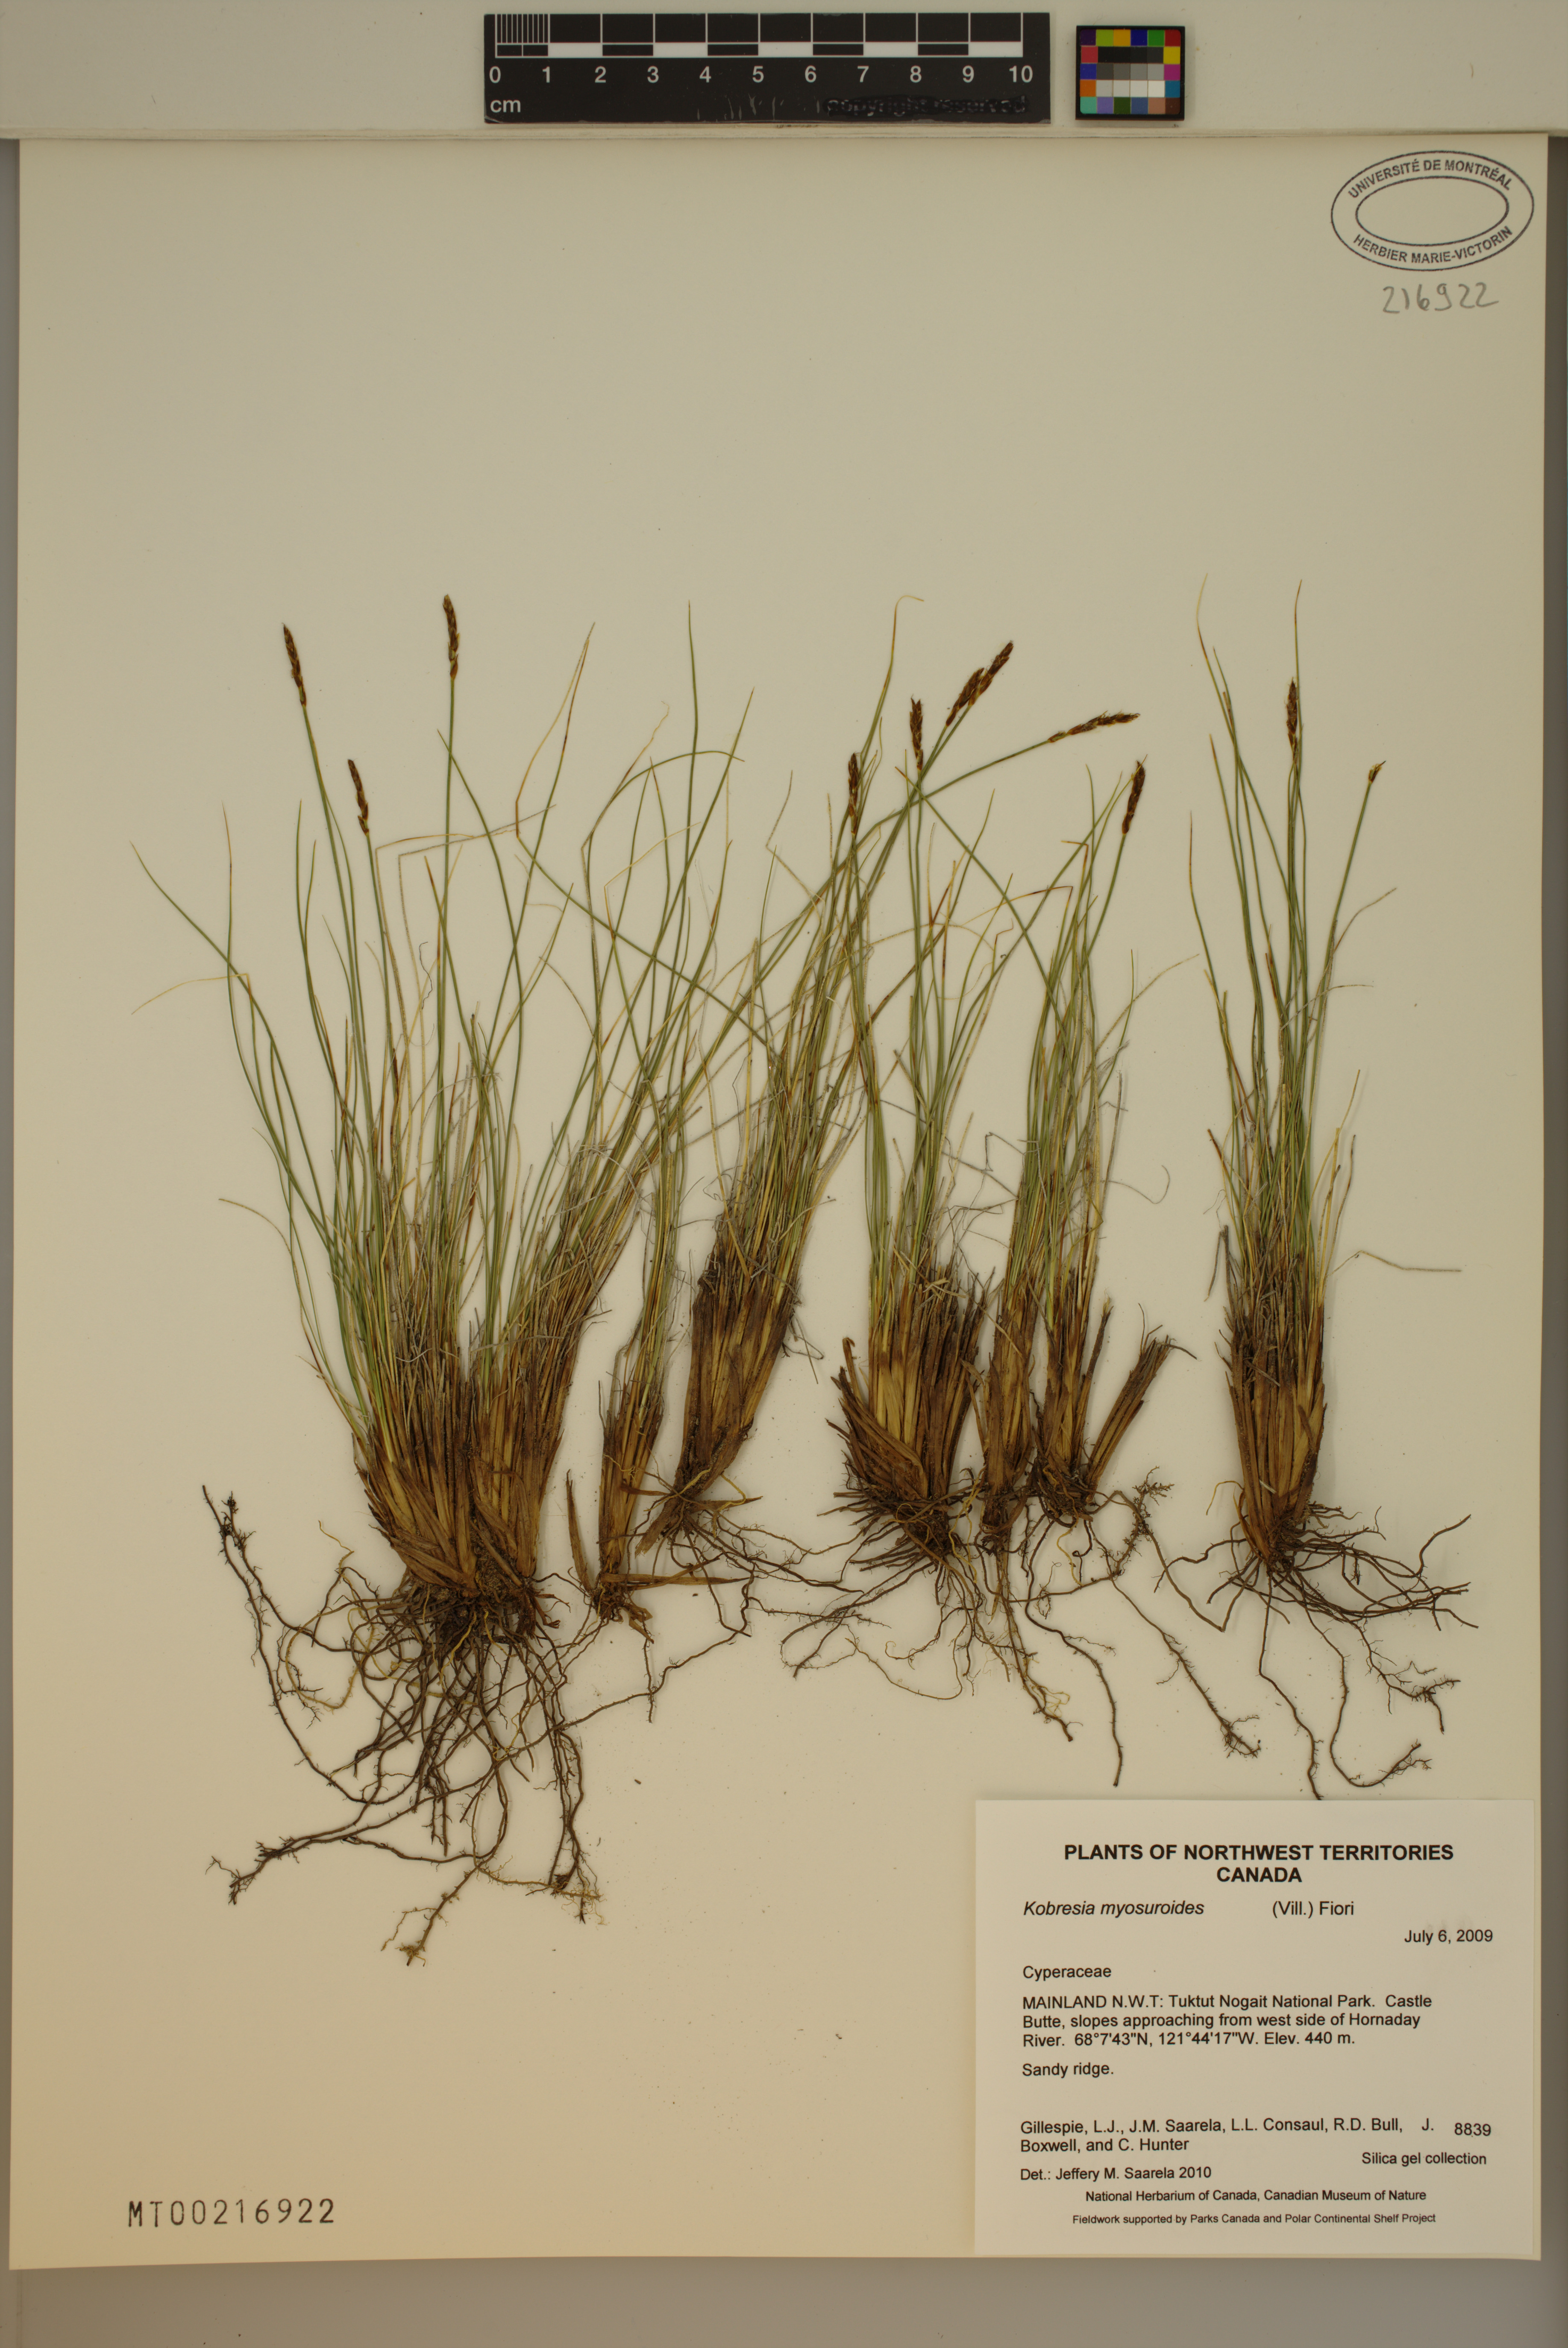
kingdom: Plantae
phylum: Tracheophyta
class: Liliopsida
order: Poales
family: Cyperaceae
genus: Carex
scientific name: Carex myosuroides
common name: Bellard's bog sedge
